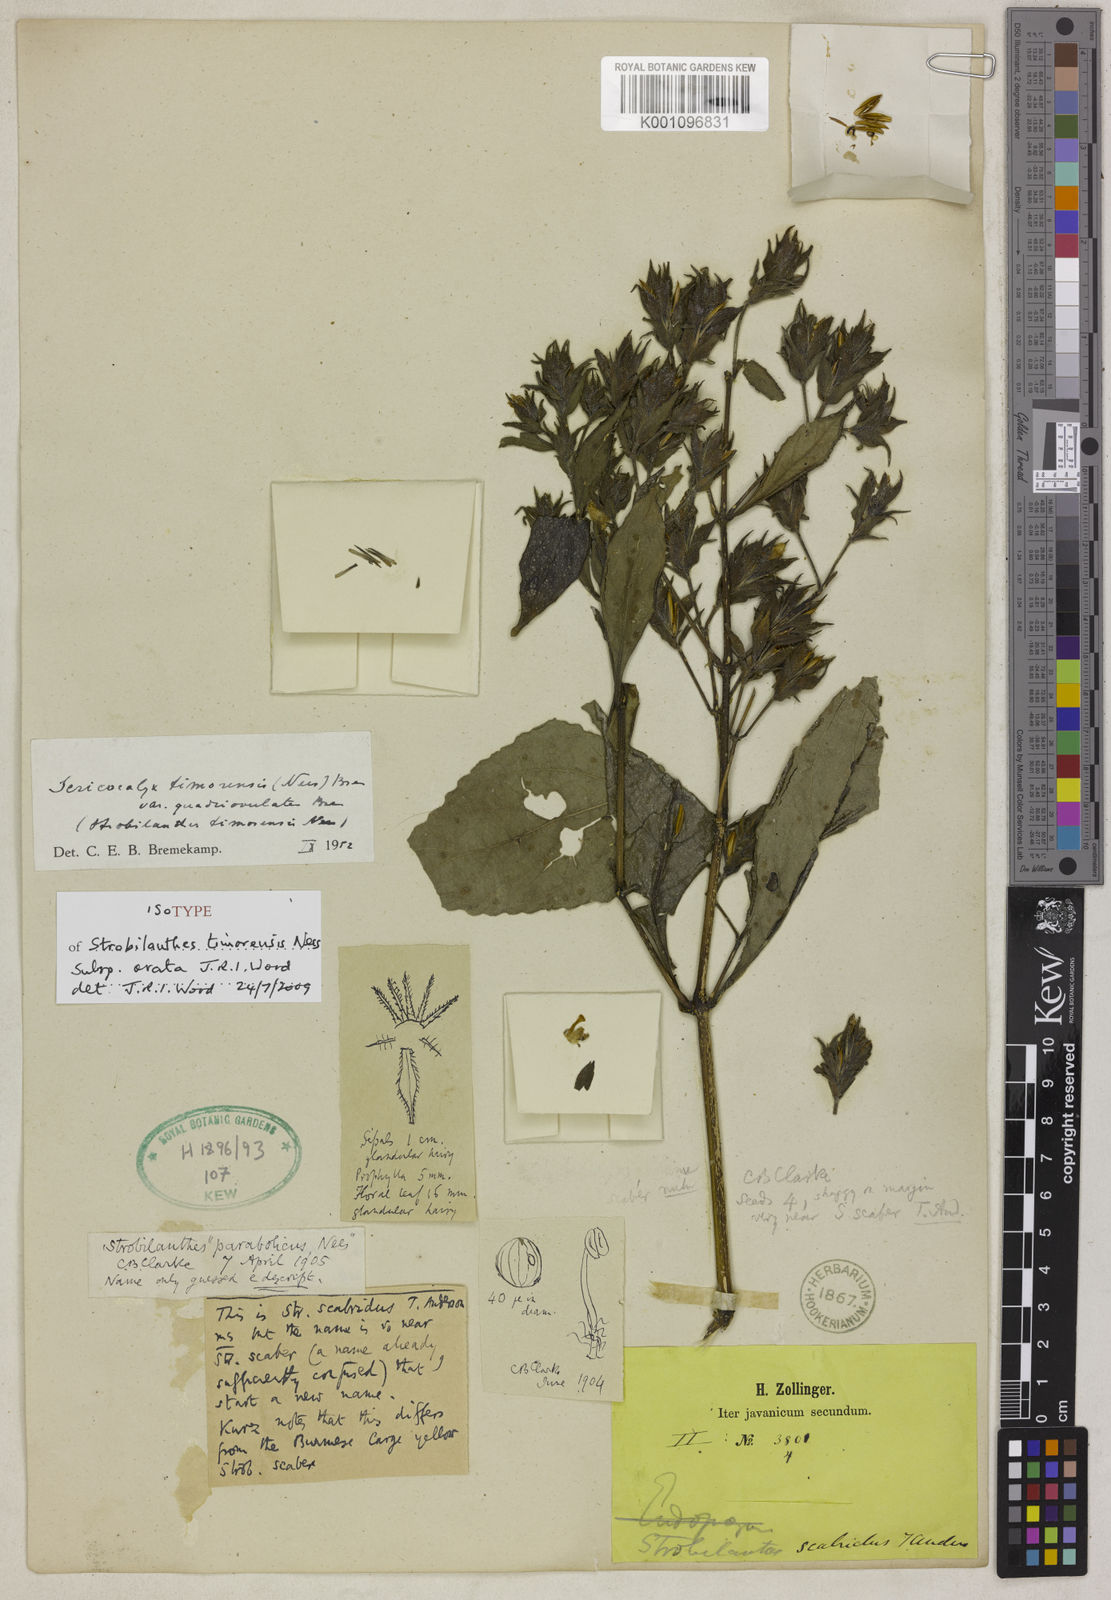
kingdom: Plantae
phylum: Tracheophyta
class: Magnoliopsida
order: Lamiales
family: Acanthaceae
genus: Strobilanthes
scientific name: Strobilanthes timorensis
